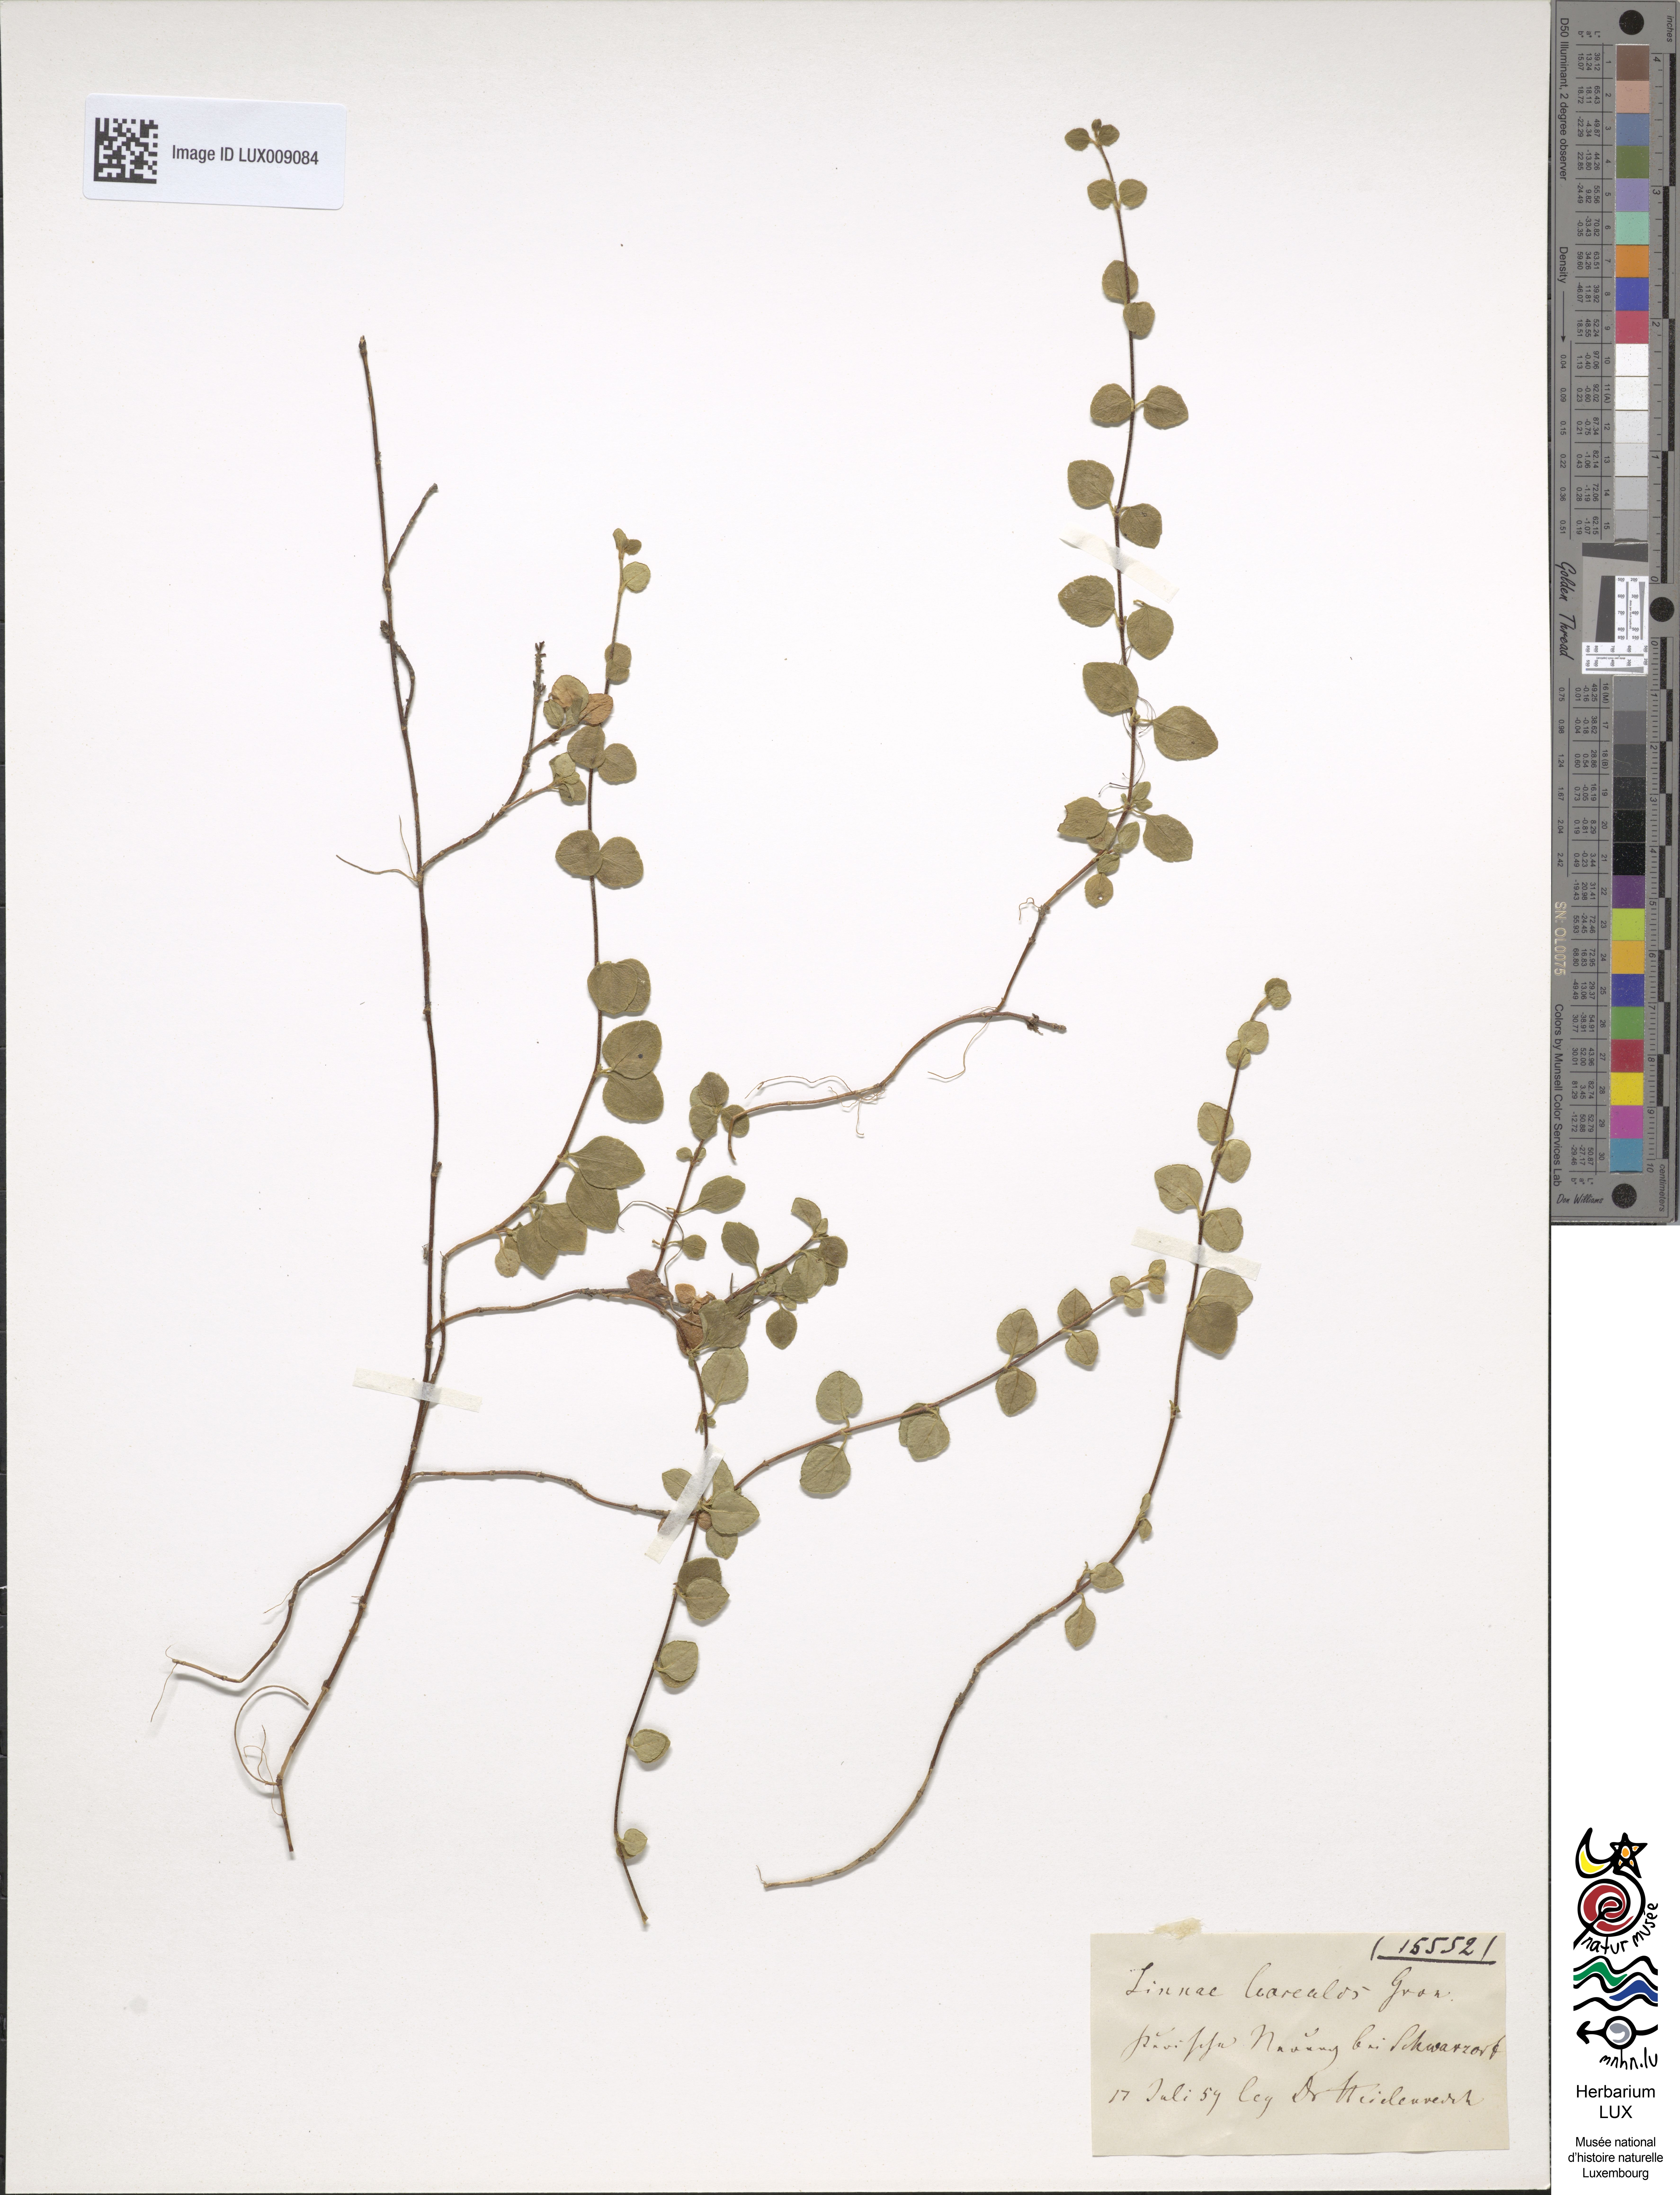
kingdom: Plantae
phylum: Tracheophyta
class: Magnoliopsida
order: Dipsacales
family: Caprifoliaceae
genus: Linnaea
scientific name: Linnaea borealis
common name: Twinflower
